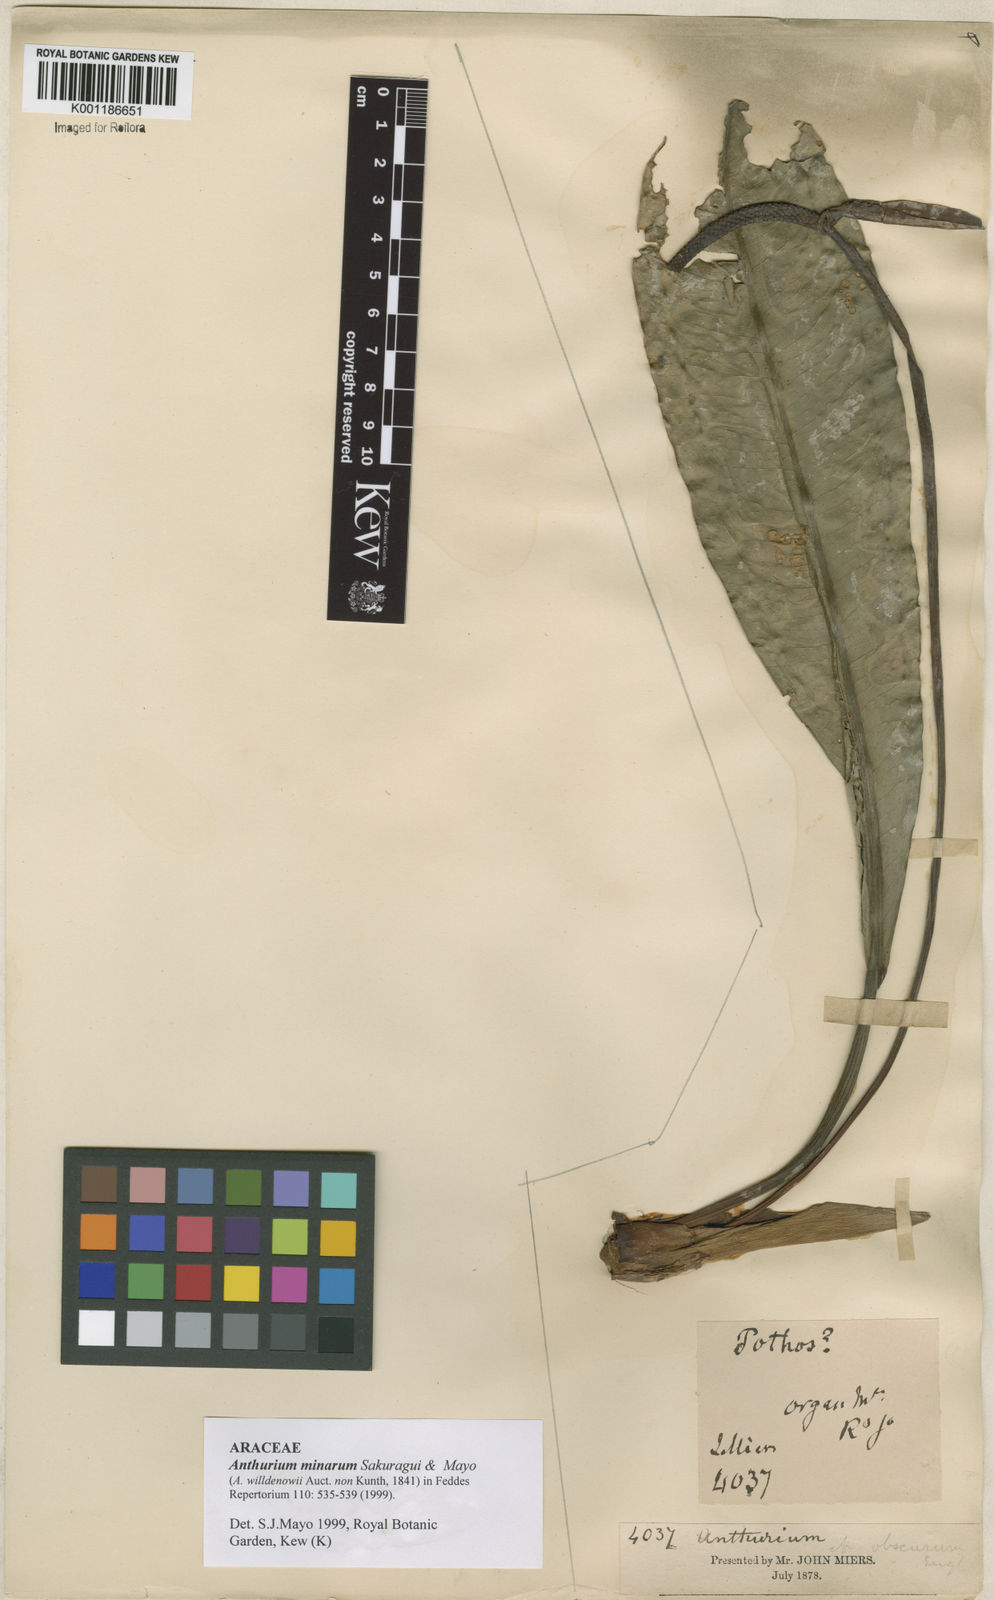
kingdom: Plantae
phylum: Tracheophyta
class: Liliopsida
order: Alismatales
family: Araceae
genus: Anthurium
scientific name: Anthurium minarum
